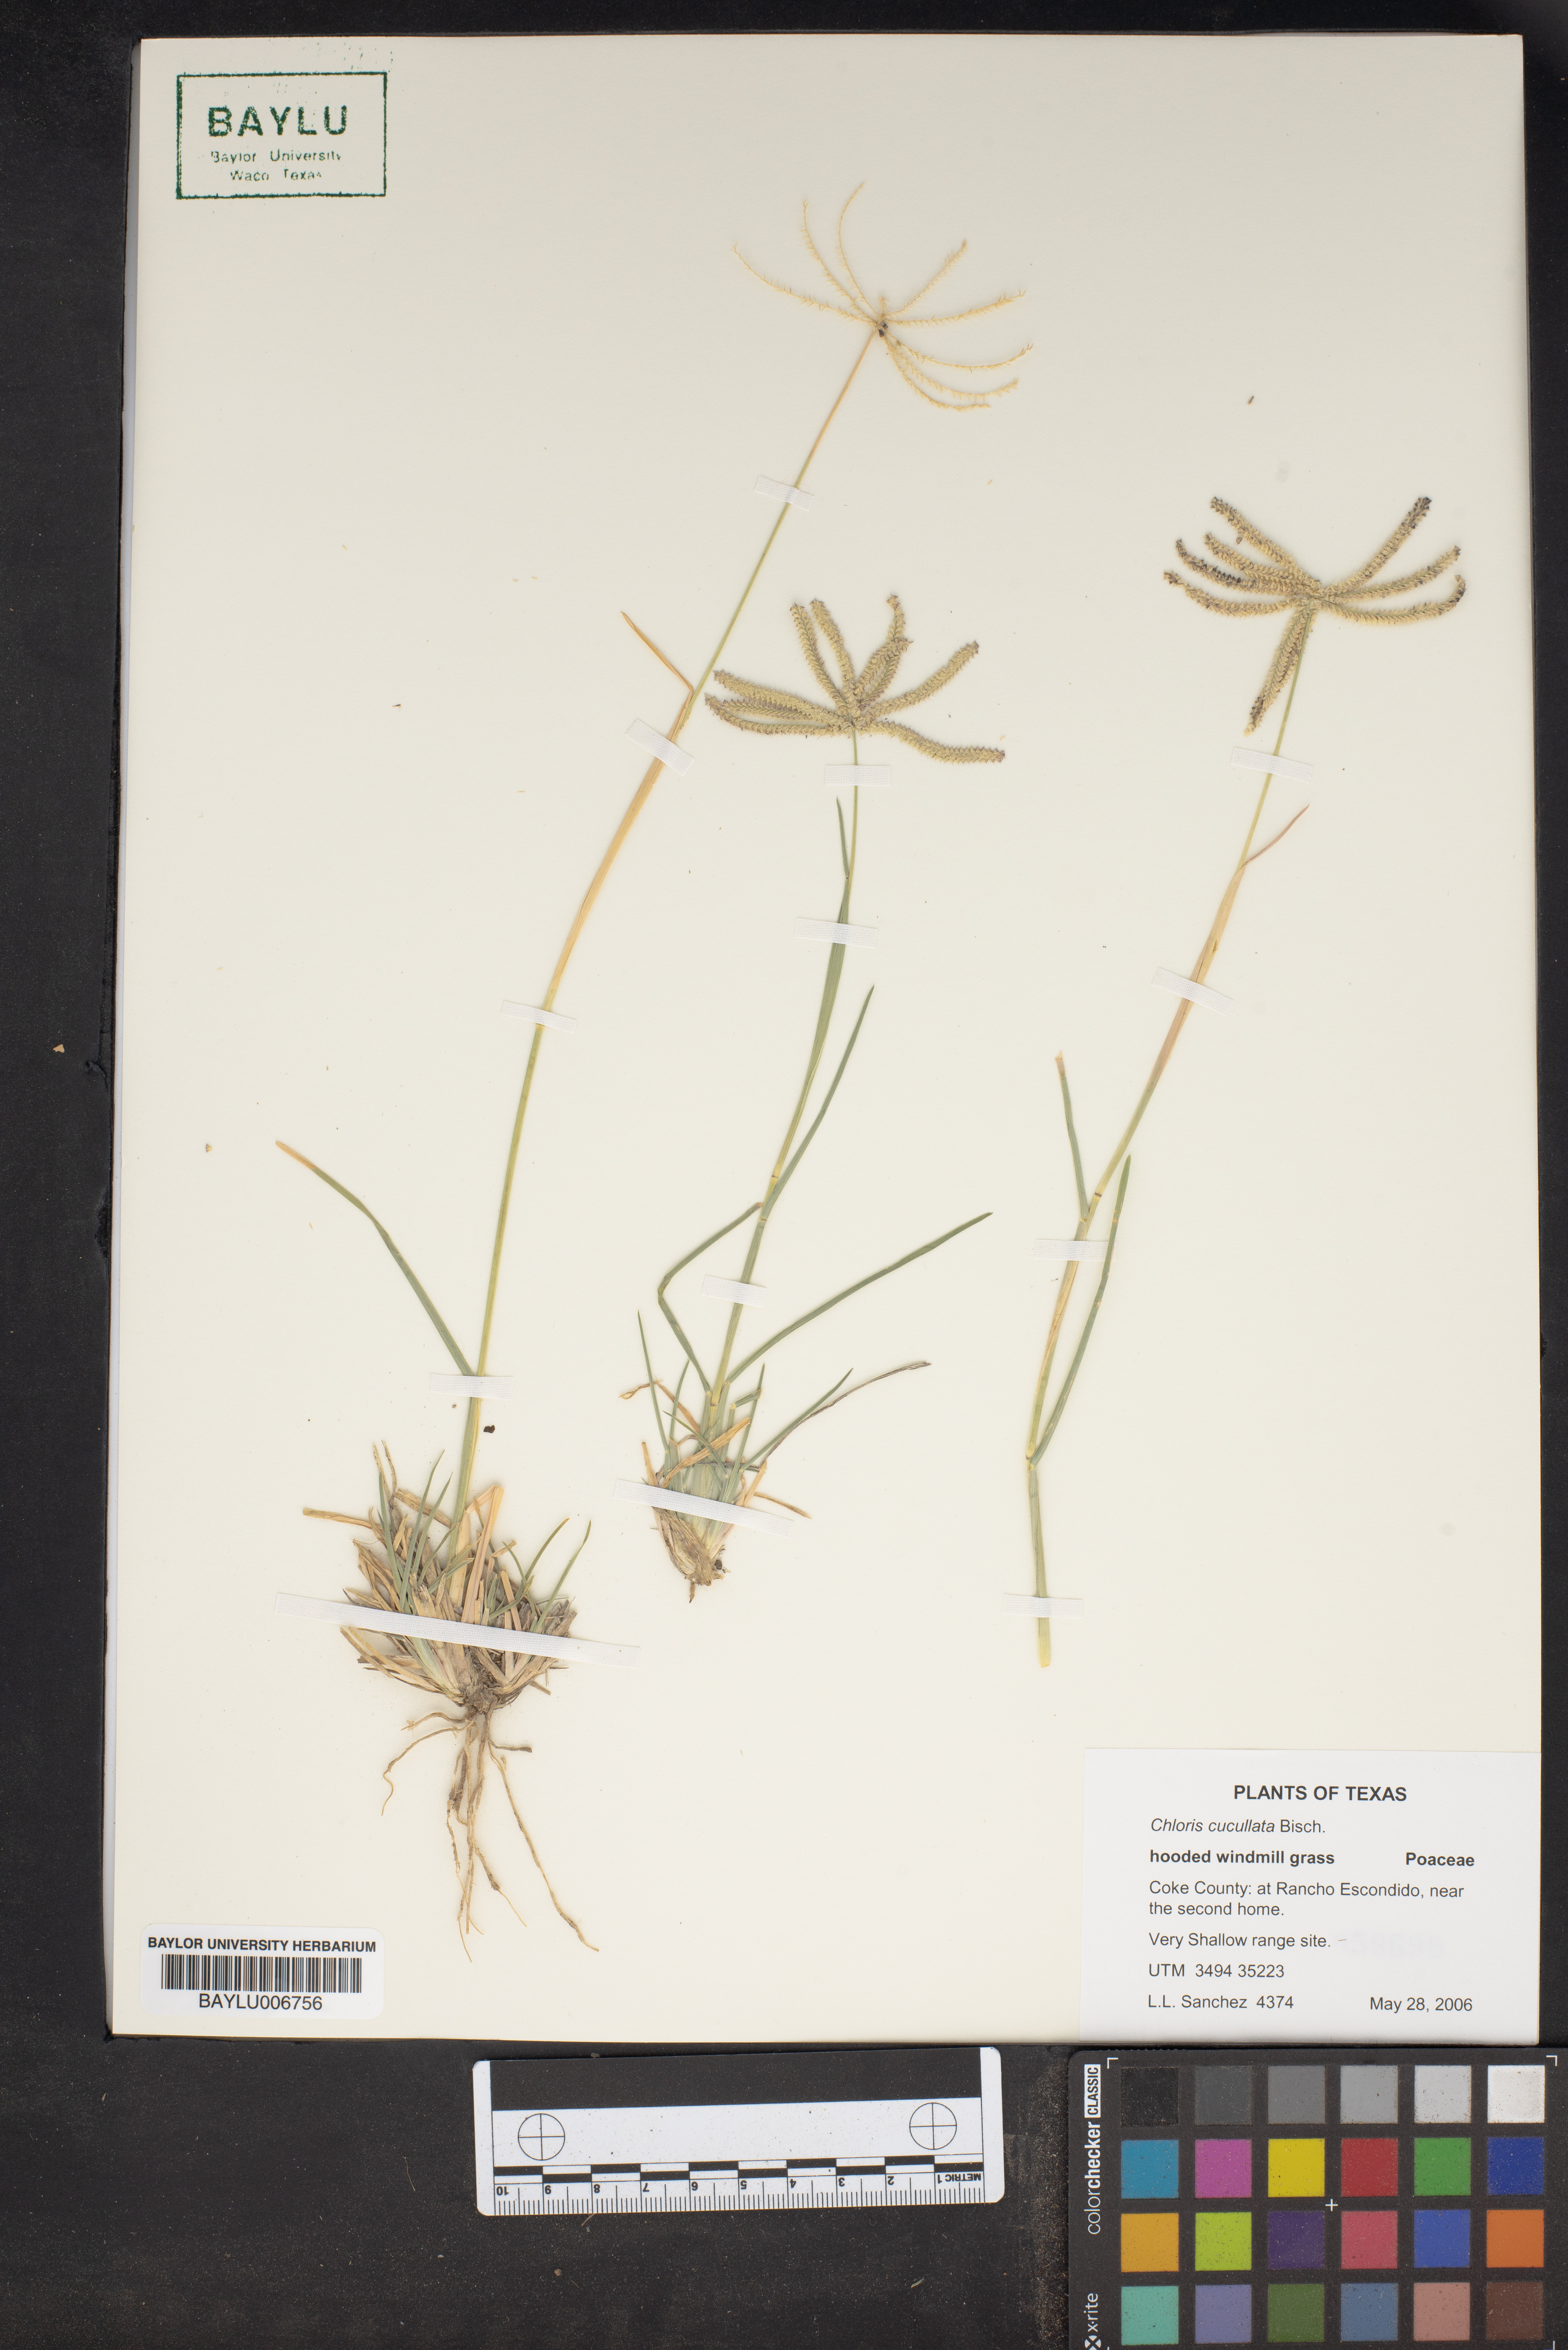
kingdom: Plantae
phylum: Tracheophyta
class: Liliopsida
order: Poales
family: Poaceae
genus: Chloris
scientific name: Chloris cucullata
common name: Hooded windmill grass
